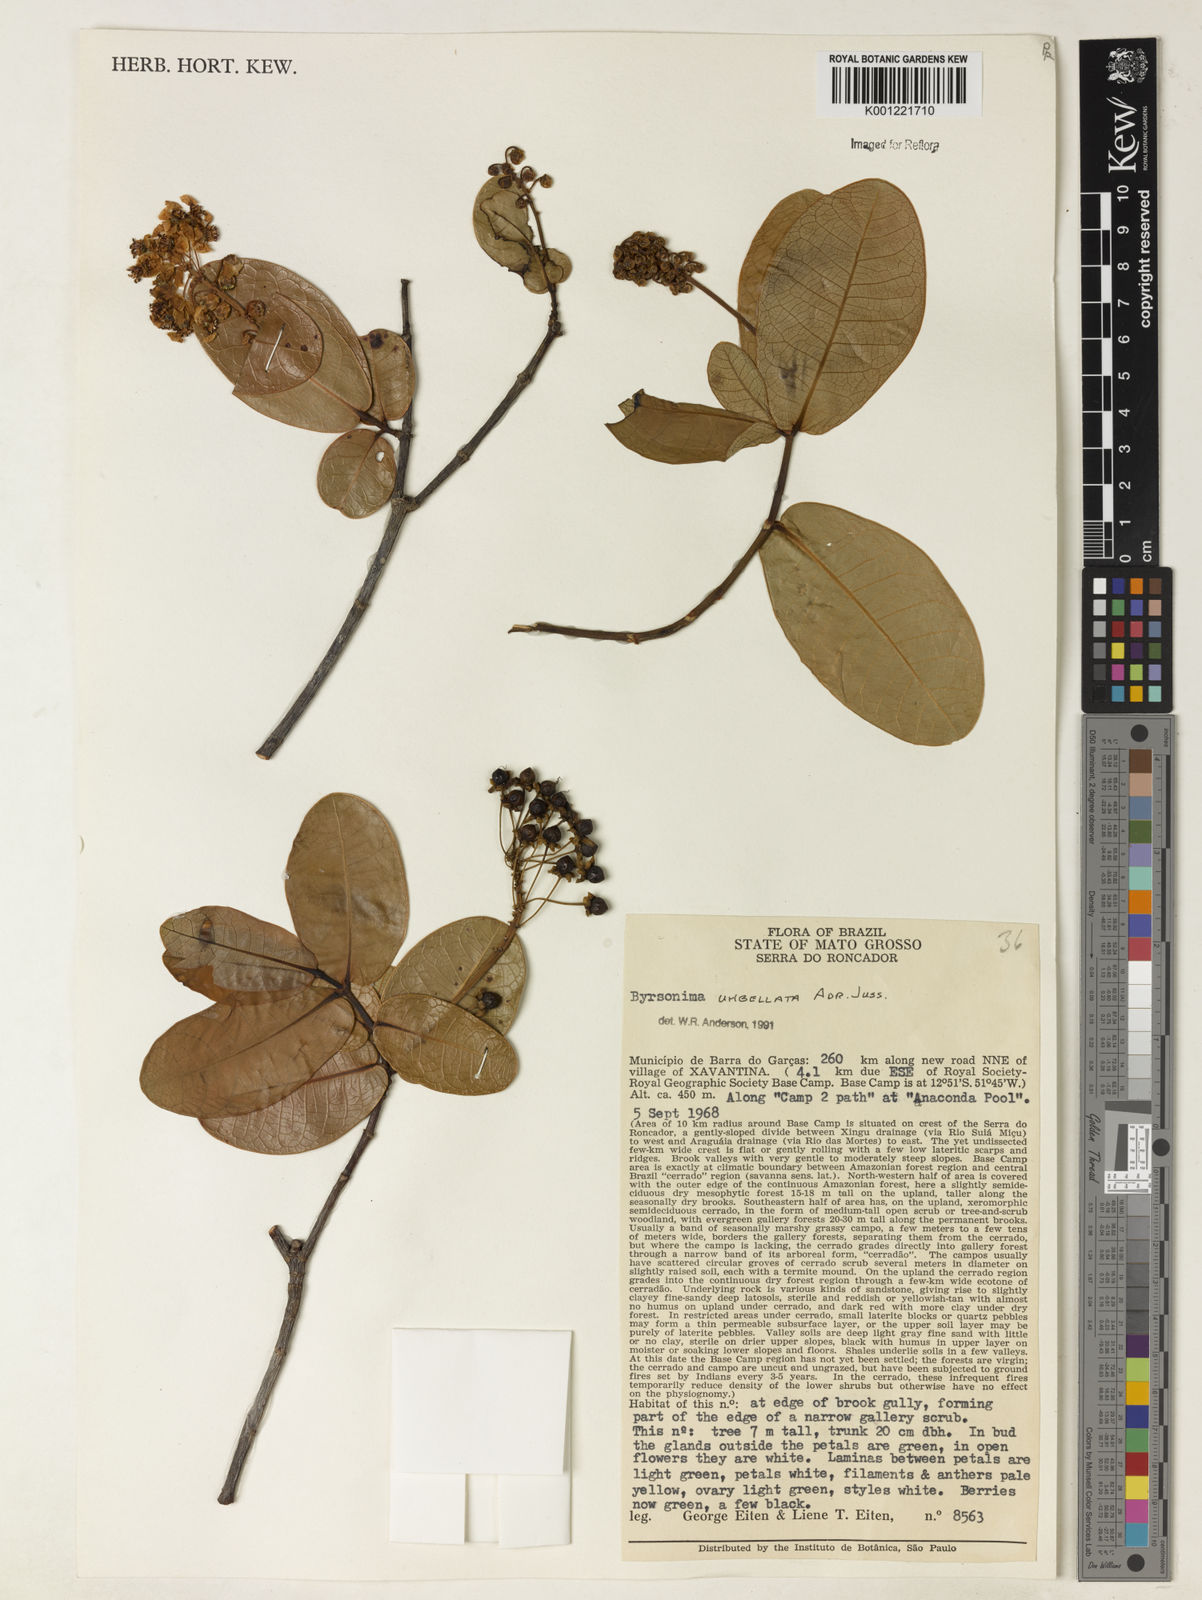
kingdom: Plantae
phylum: Tracheophyta
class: Magnoliopsida
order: Malpighiales
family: Malpighiaceae
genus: Byrsonima
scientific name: Byrsonima umbellata
